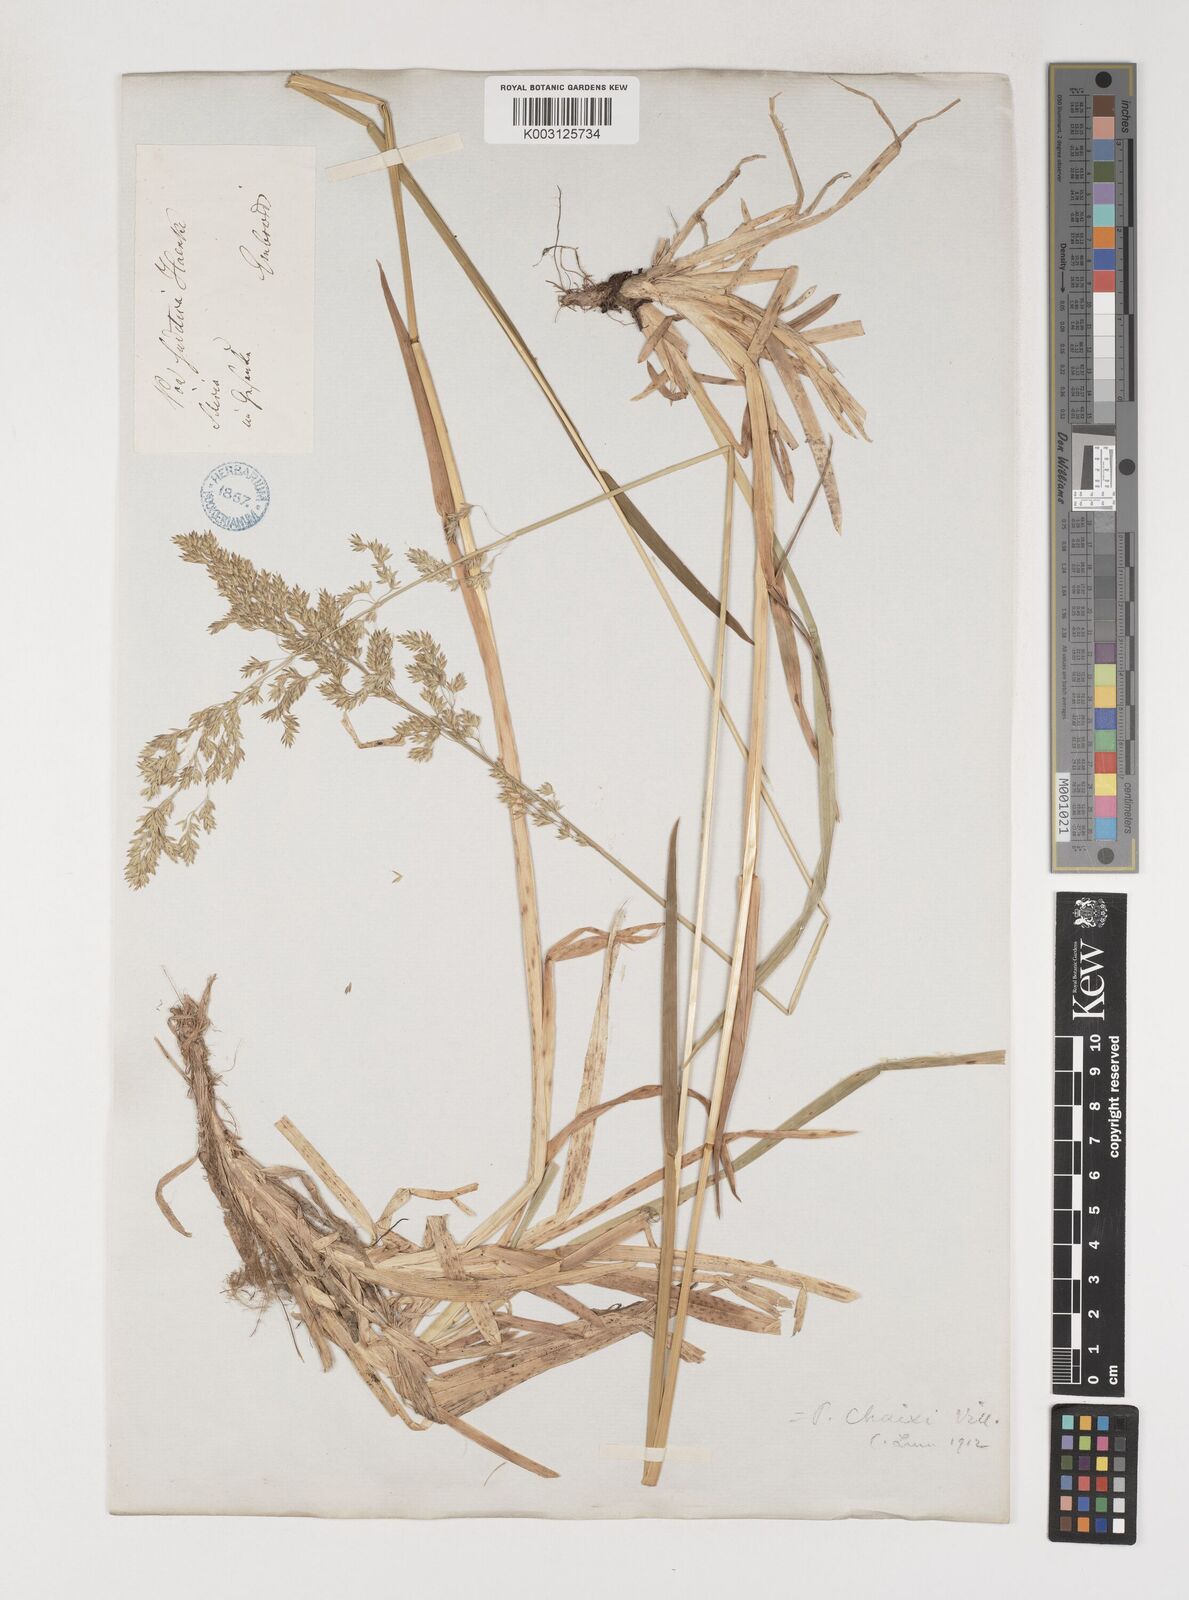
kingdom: Plantae
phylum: Tracheophyta
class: Liliopsida
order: Poales
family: Poaceae
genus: Poa
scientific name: Poa chaixii
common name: Broad-leaved meadow-grass
